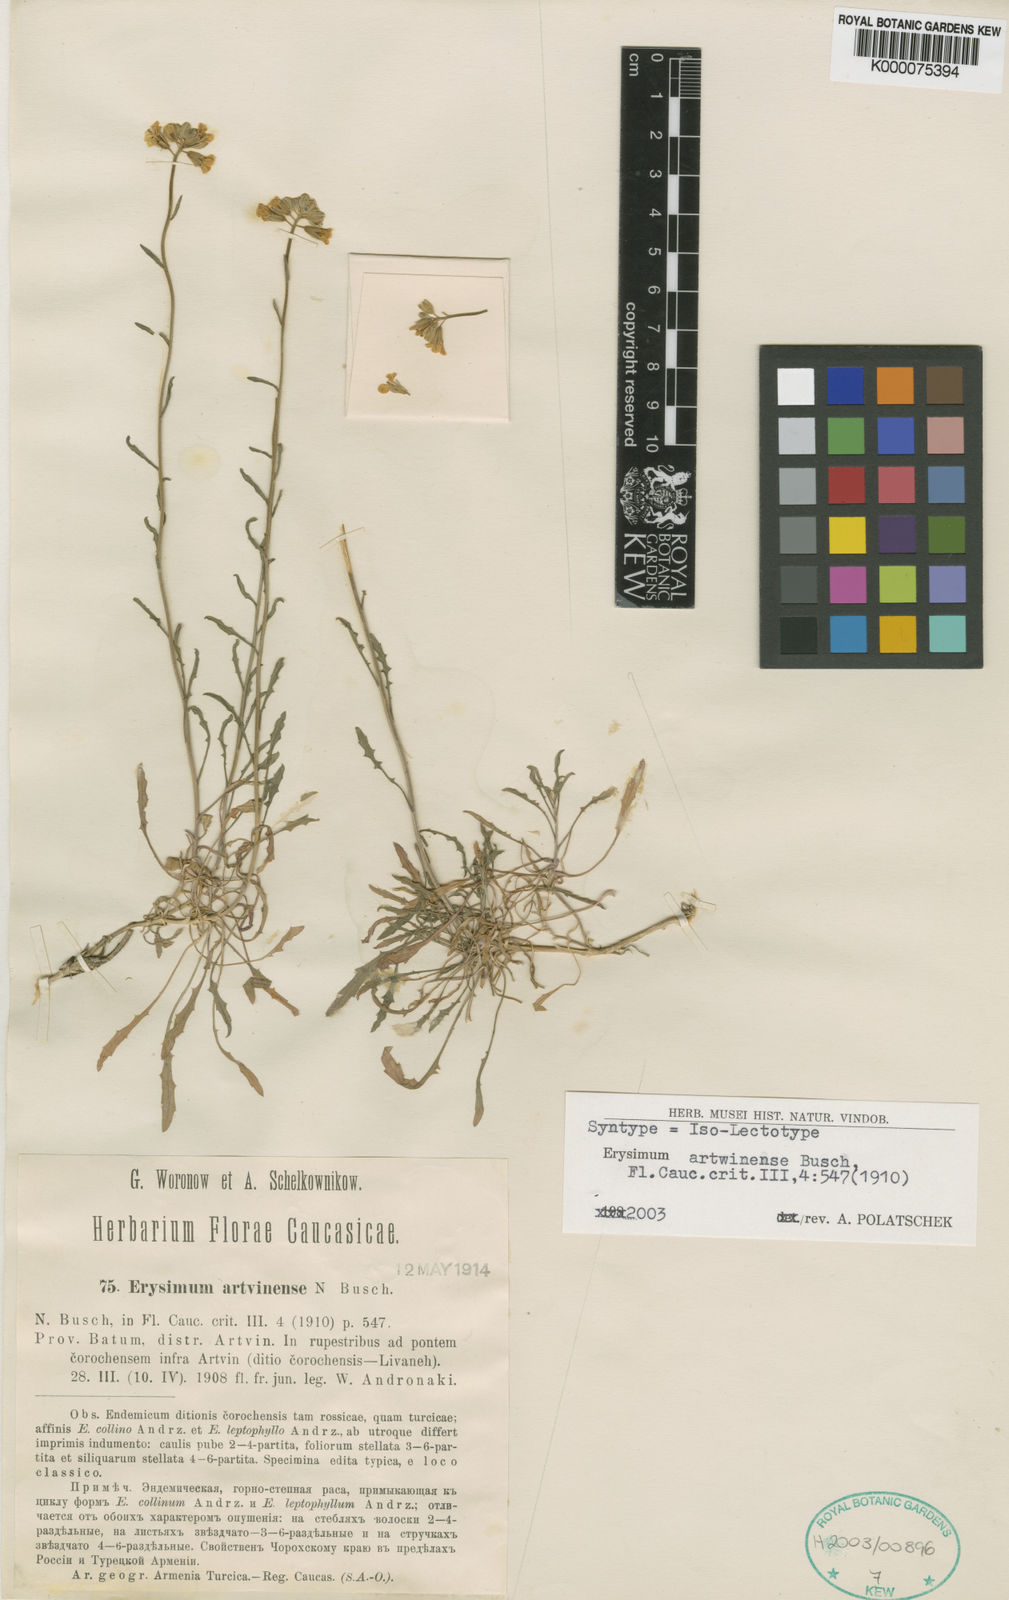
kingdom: Plantae
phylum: Tracheophyta
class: Magnoliopsida
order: Brassicales
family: Brassicaceae
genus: Erysimum
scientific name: Erysimum artwinense
